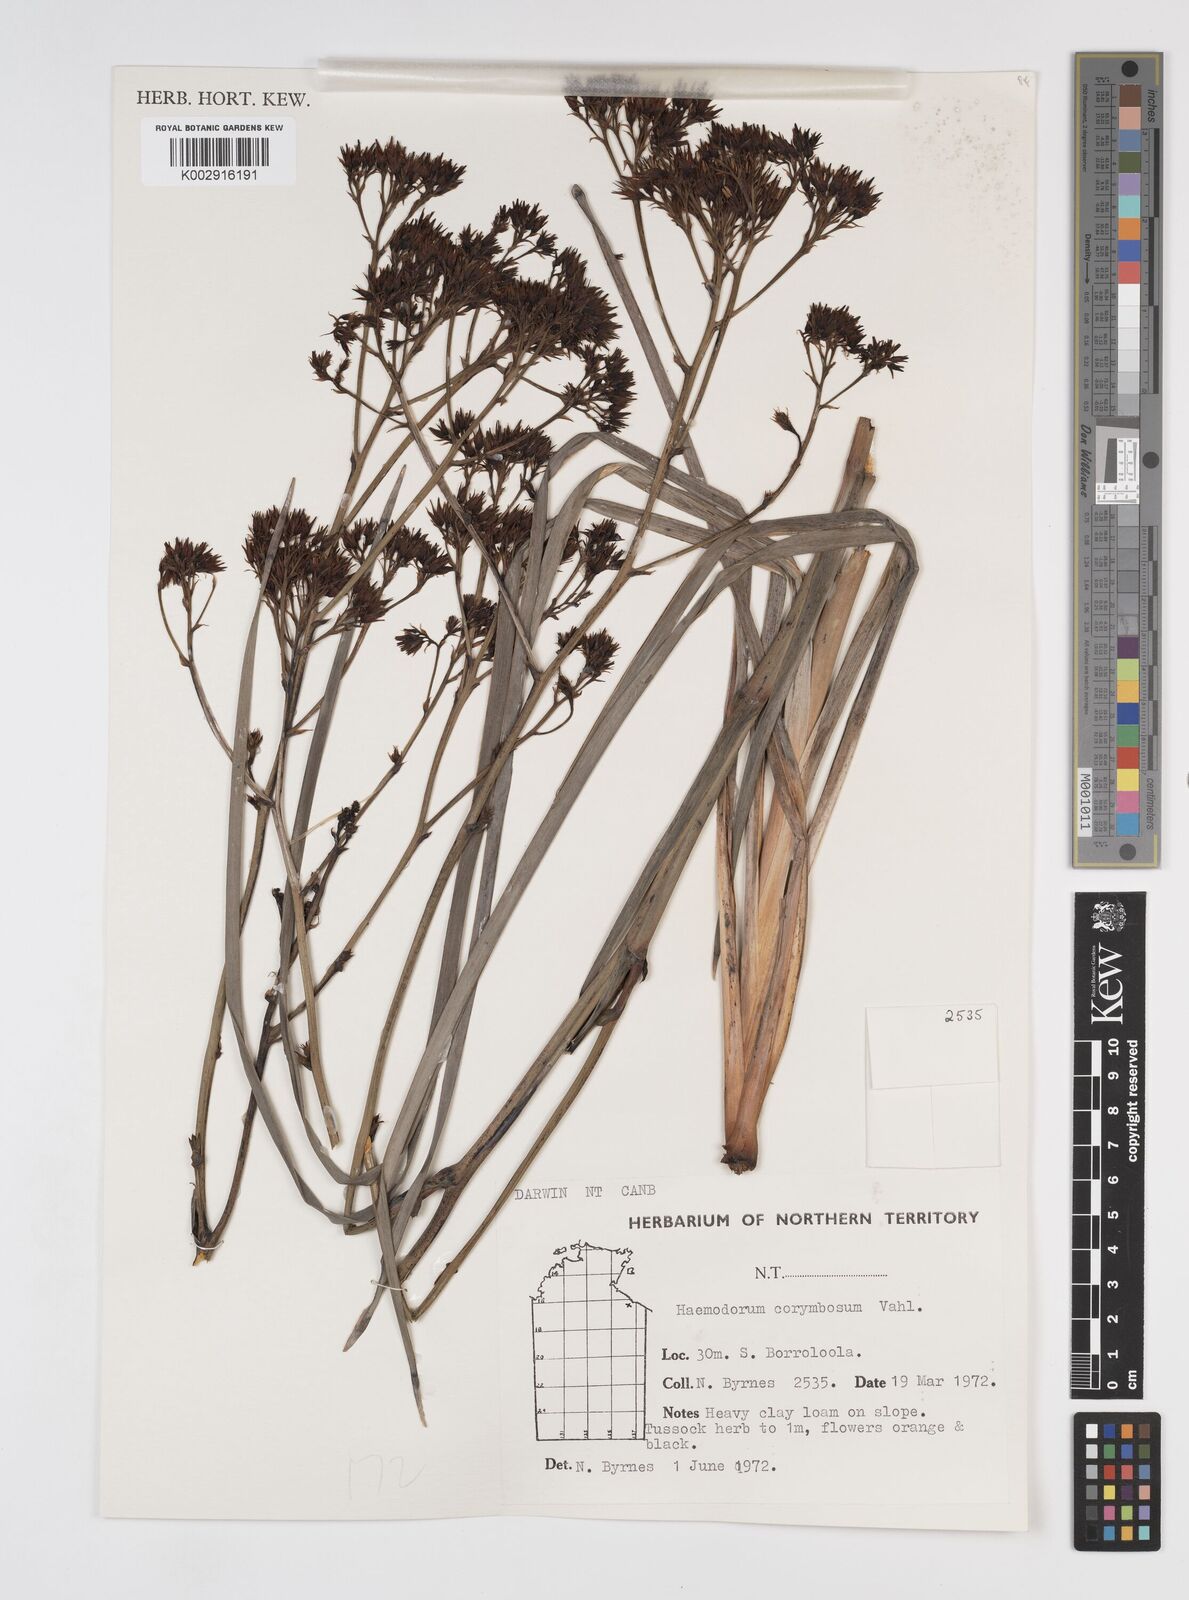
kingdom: Plantae
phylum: Tracheophyta
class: Liliopsida
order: Commelinales
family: Haemodoraceae
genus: Haemodorum
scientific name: Haemodorum corymbosum
